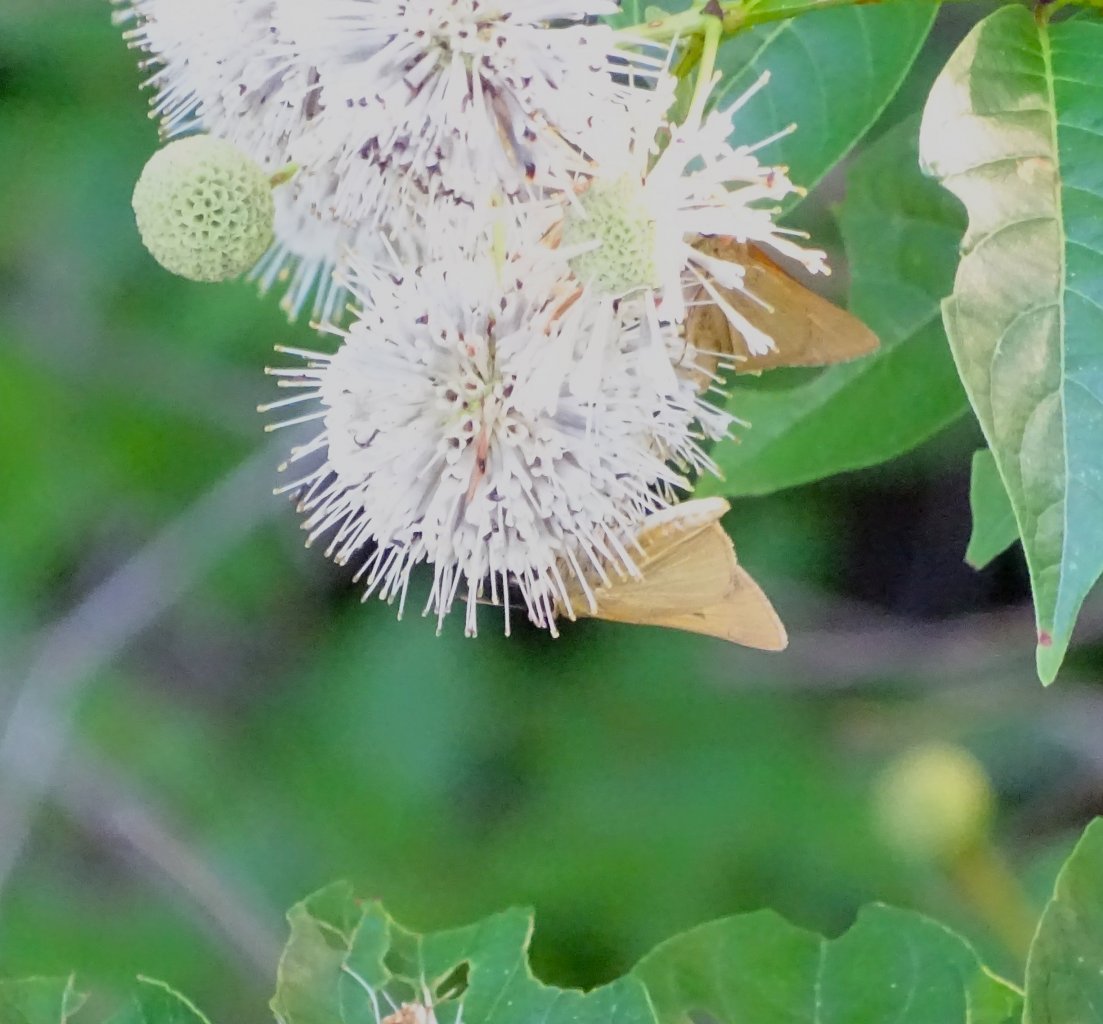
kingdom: Animalia
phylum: Arthropoda
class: Insecta
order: Lepidoptera
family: Hesperiidae
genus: Problema
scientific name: Problema bulenta
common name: Rare Skipper
